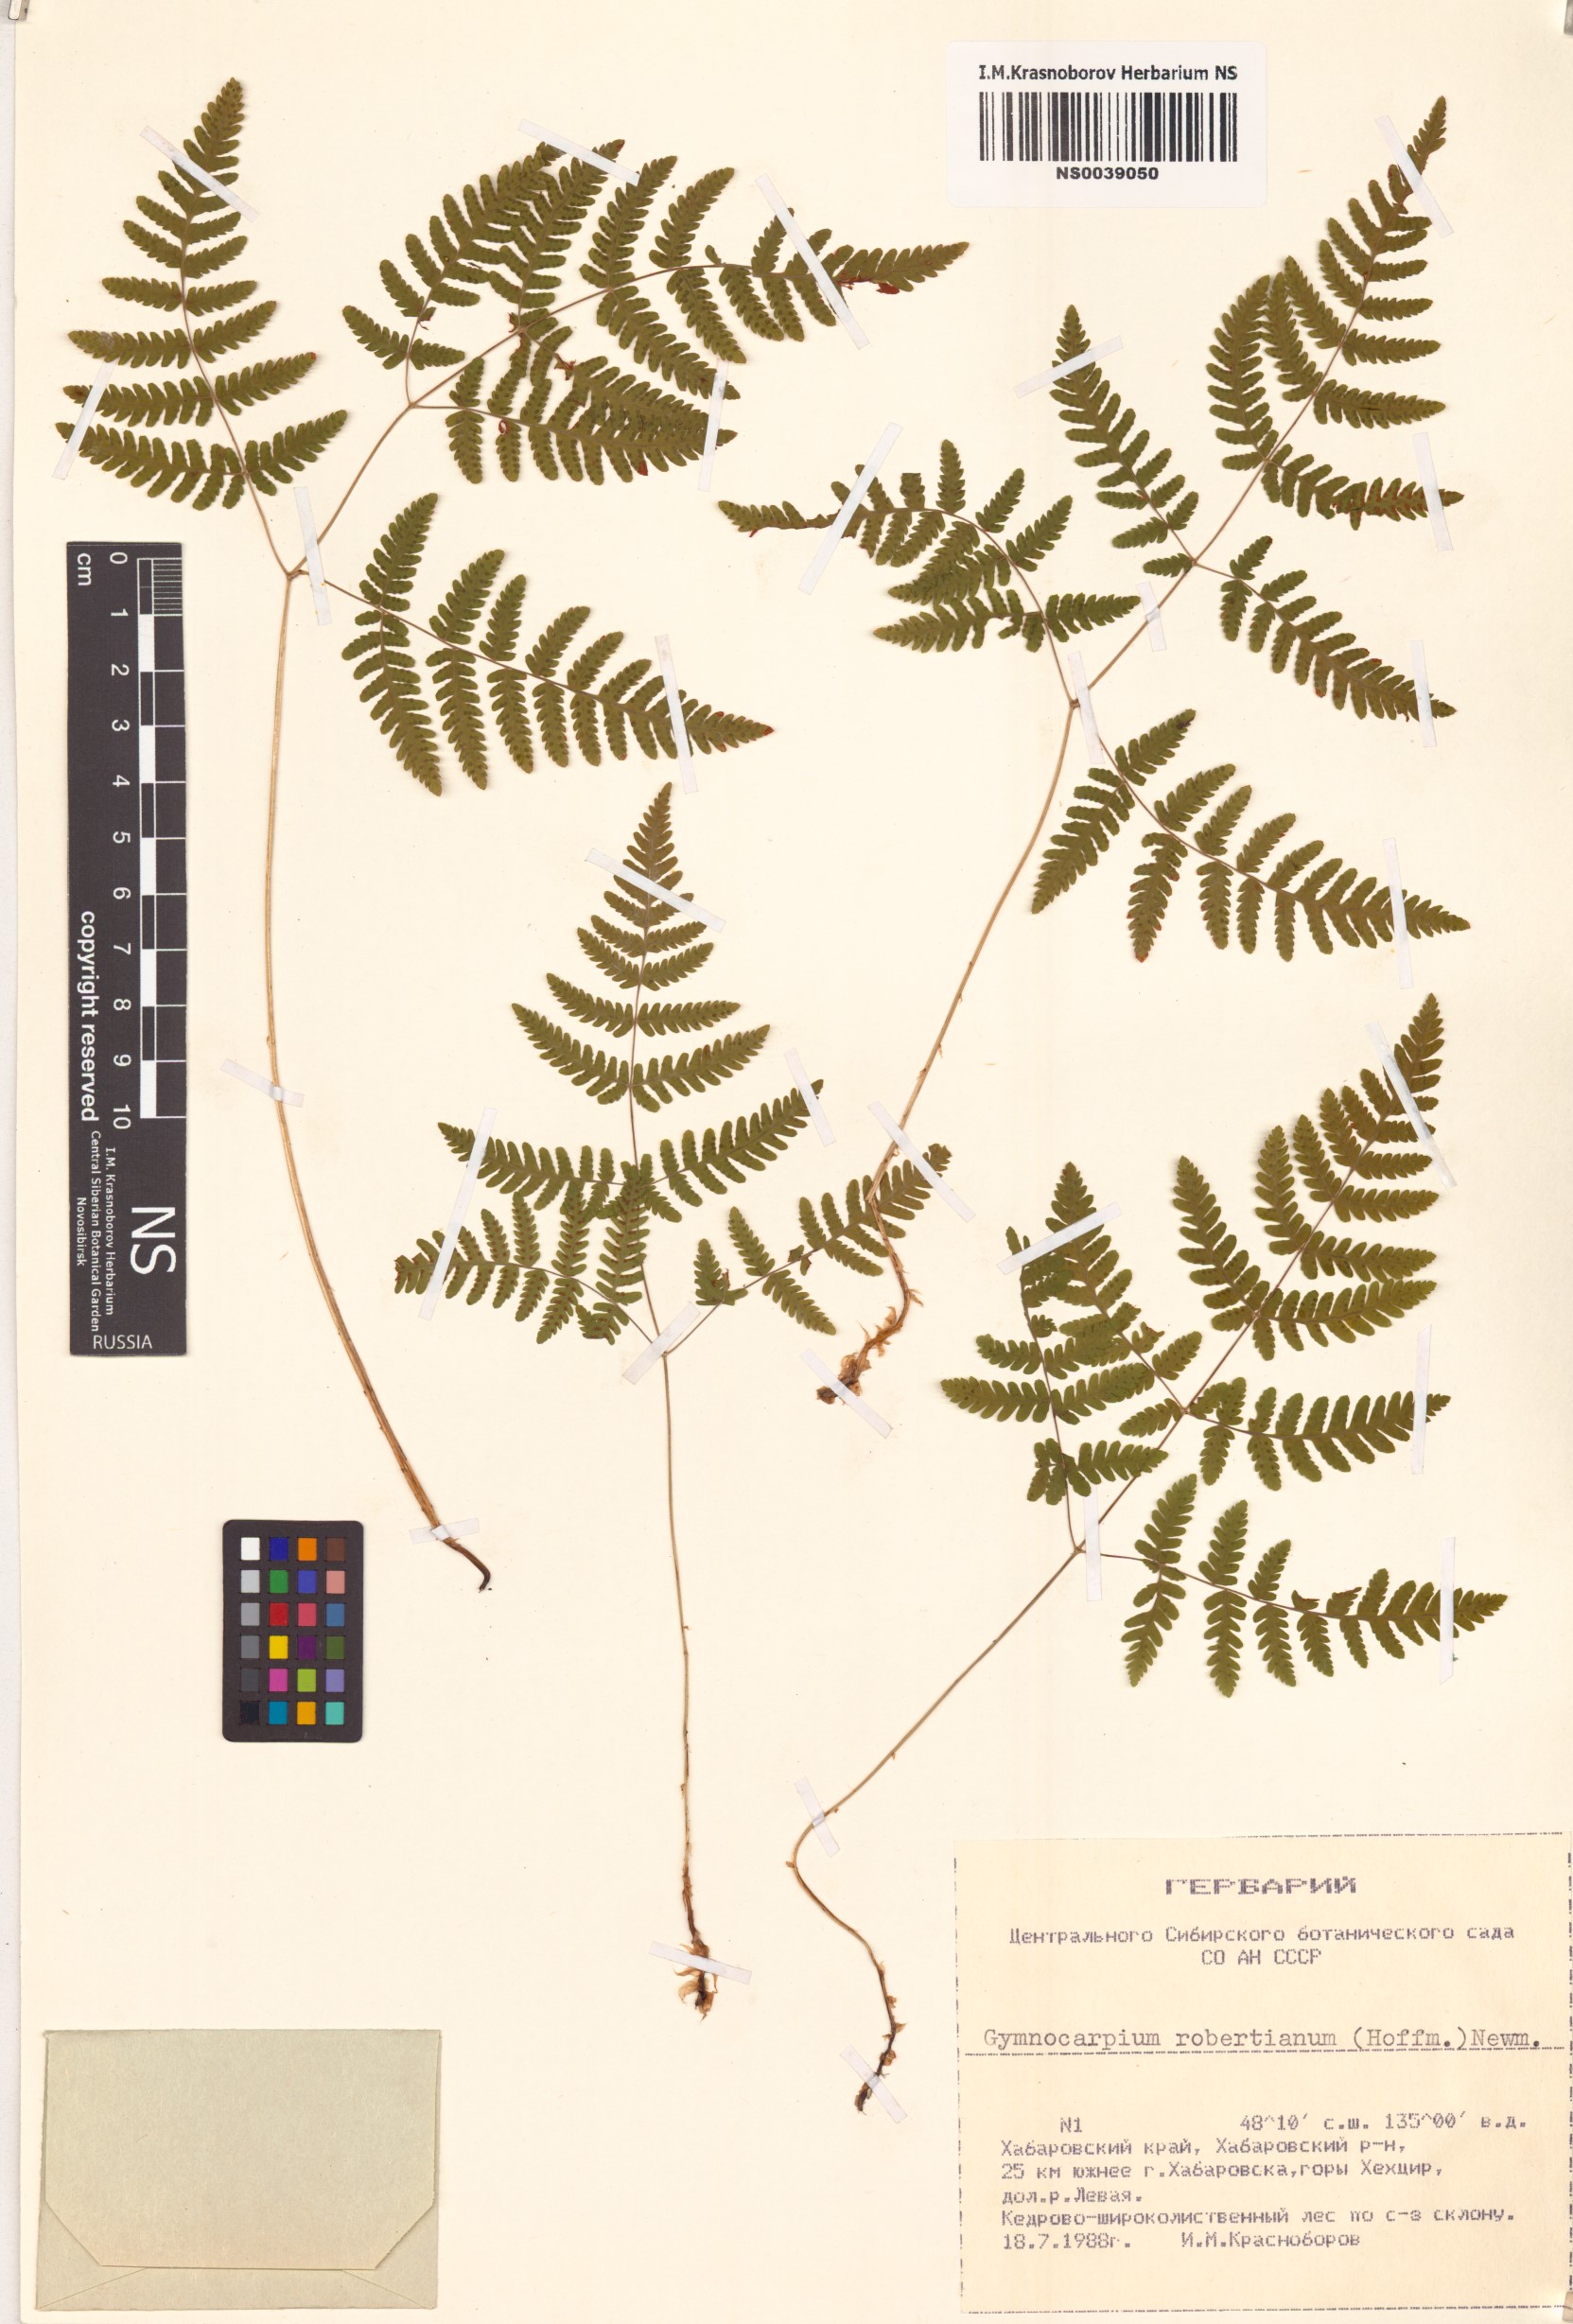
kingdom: Plantae
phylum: Tracheophyta
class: Polypodiopsida
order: Polypodiales
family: Cystopteridaceae
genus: Gymnocarpium
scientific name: Gymnocarpium robertianum
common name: Limestone fern
